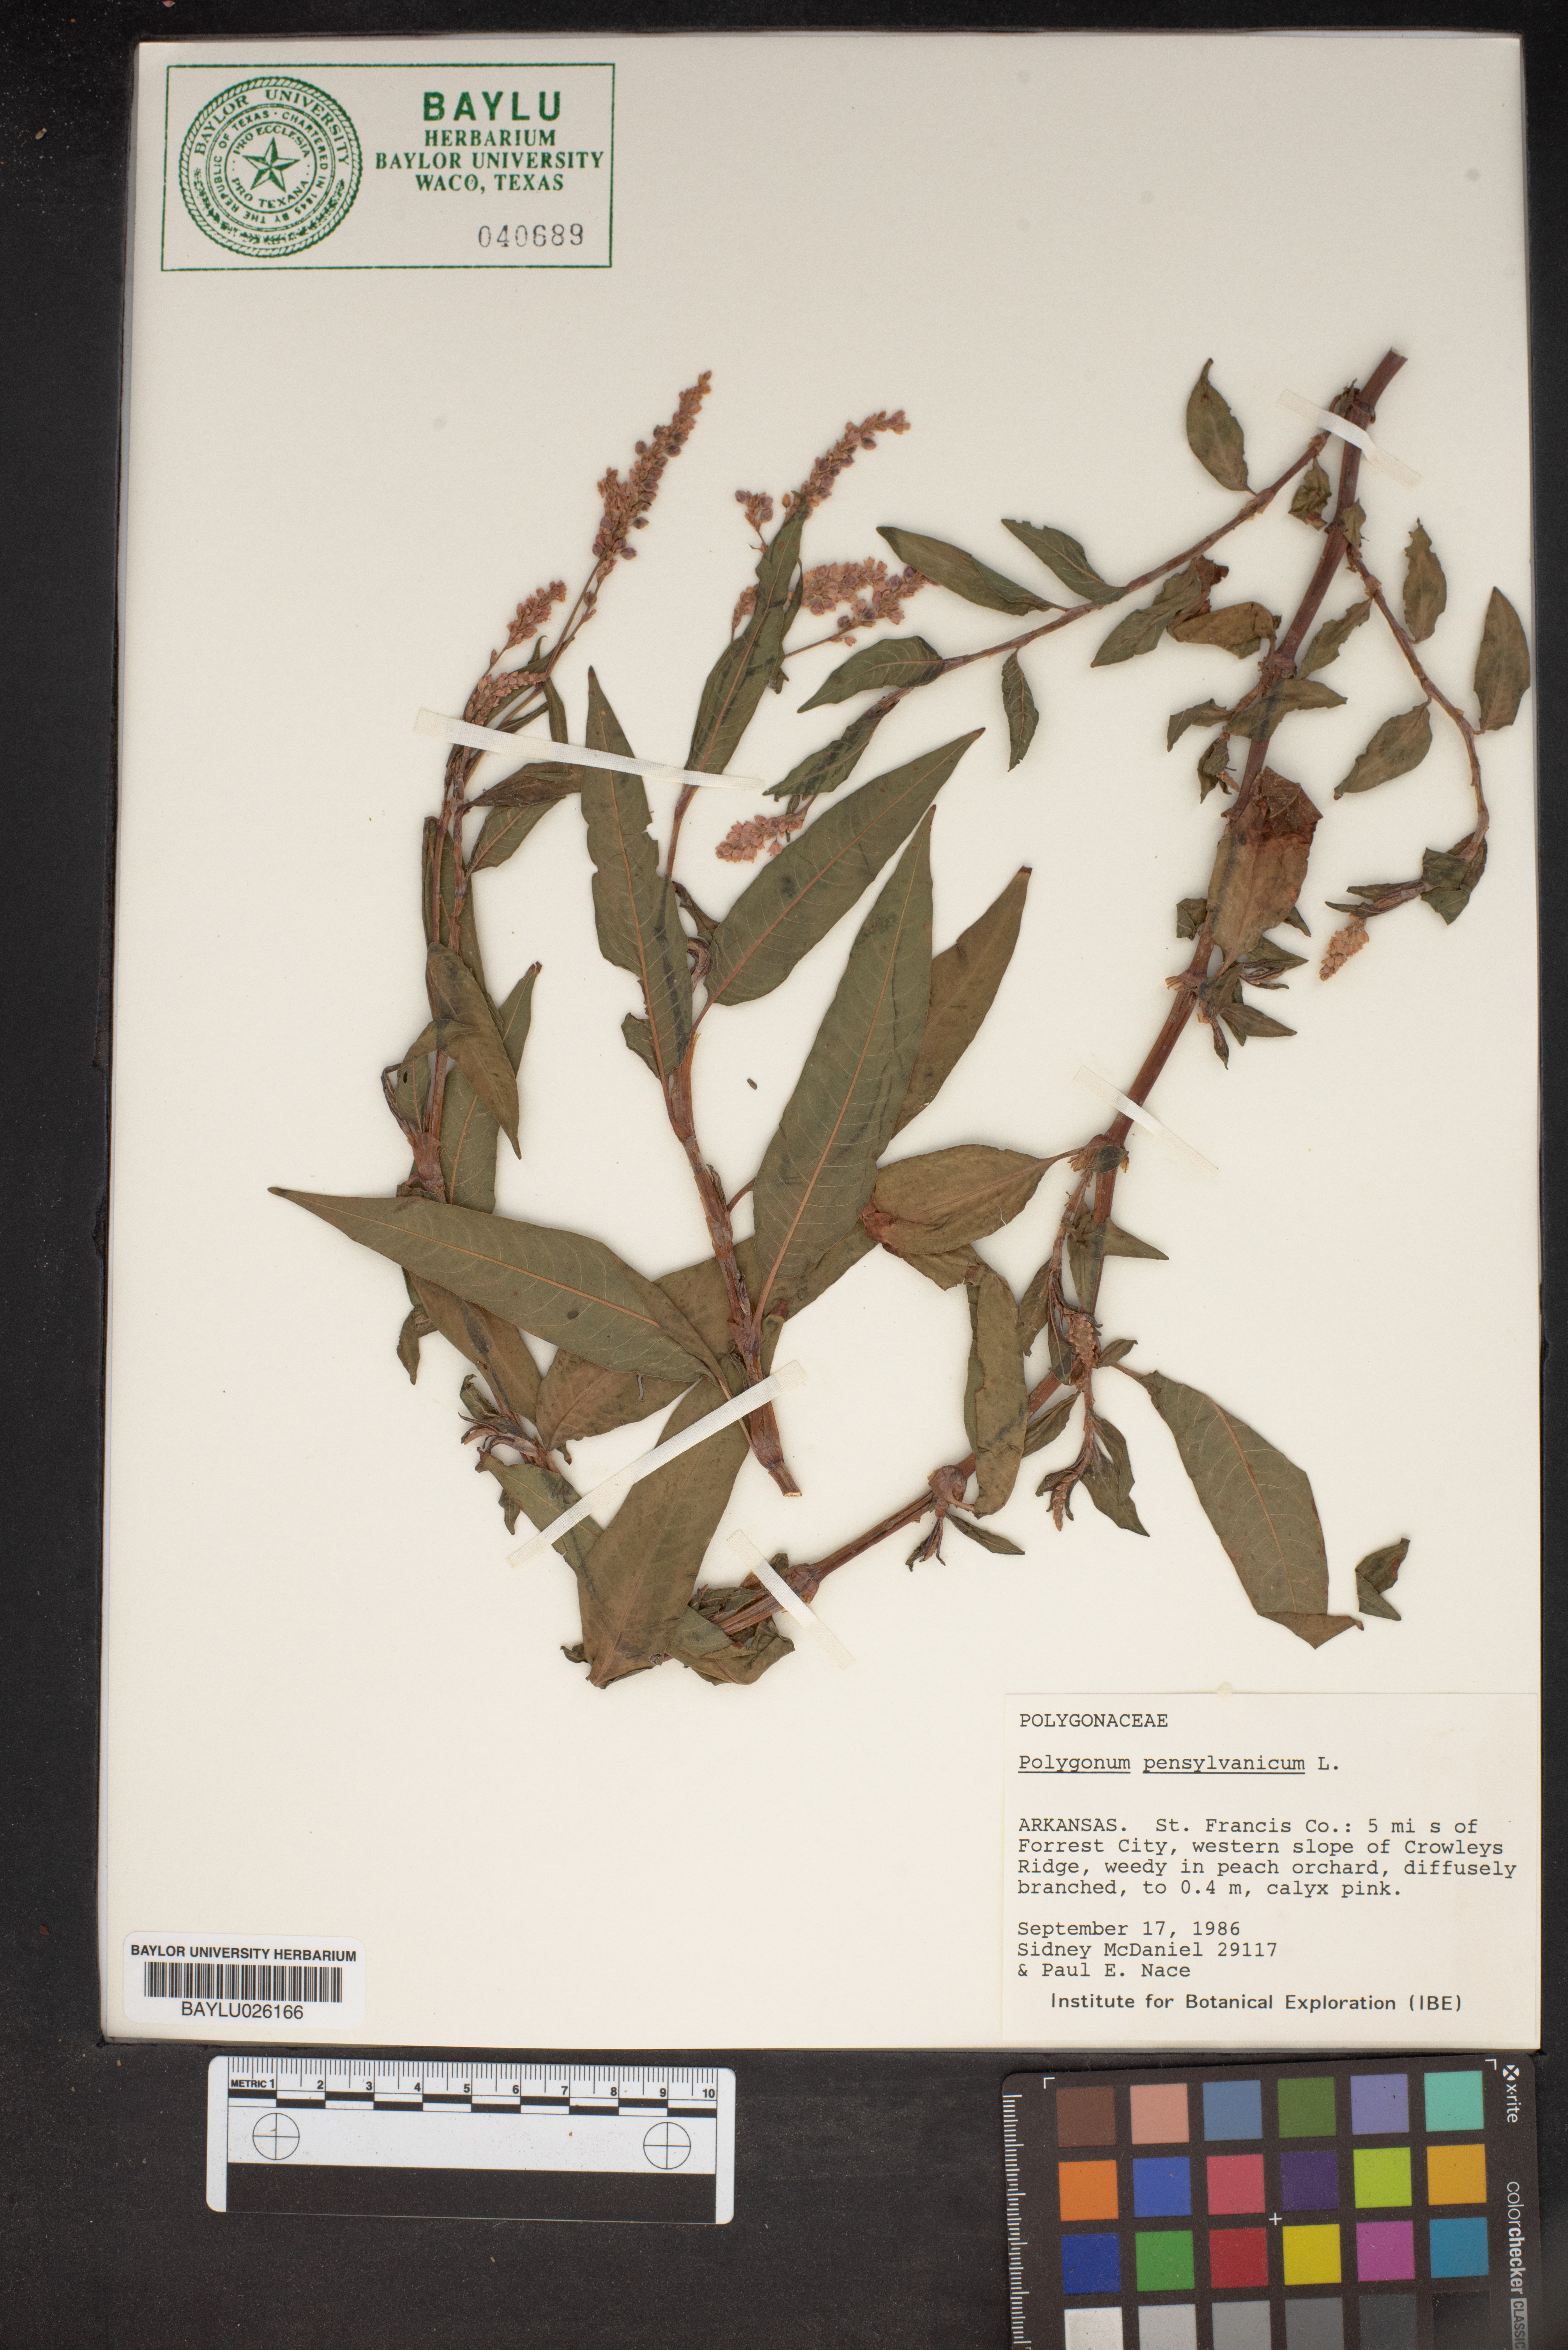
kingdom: Plantae
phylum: Tracheophyta
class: Magnoliopsida
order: Caryophyllales
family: Polygonaceae
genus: Persicaria
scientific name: Persicaria pensylvanica
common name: Pinkweed
